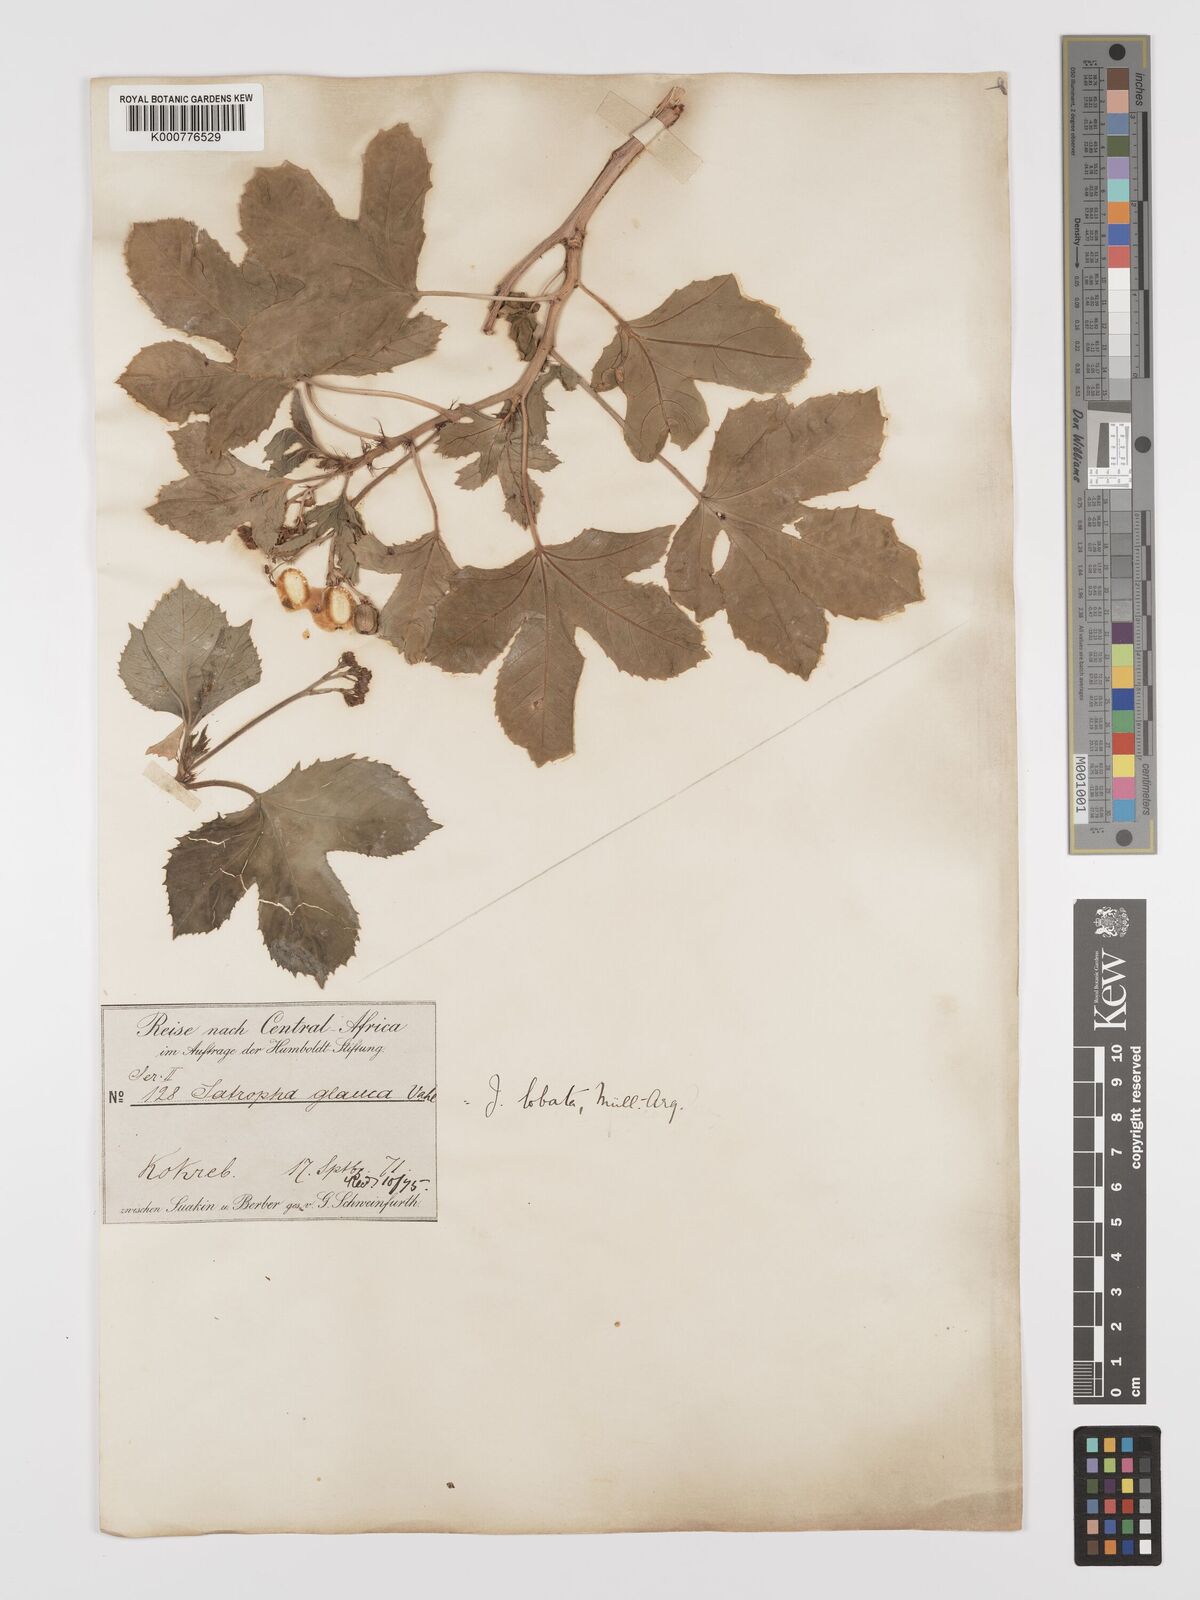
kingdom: Plantae
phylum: Tracheophyta
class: Magnoliopsida
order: Malpighiales
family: Euphorbiaceae
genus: Jatropha
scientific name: Jatropha glauca
